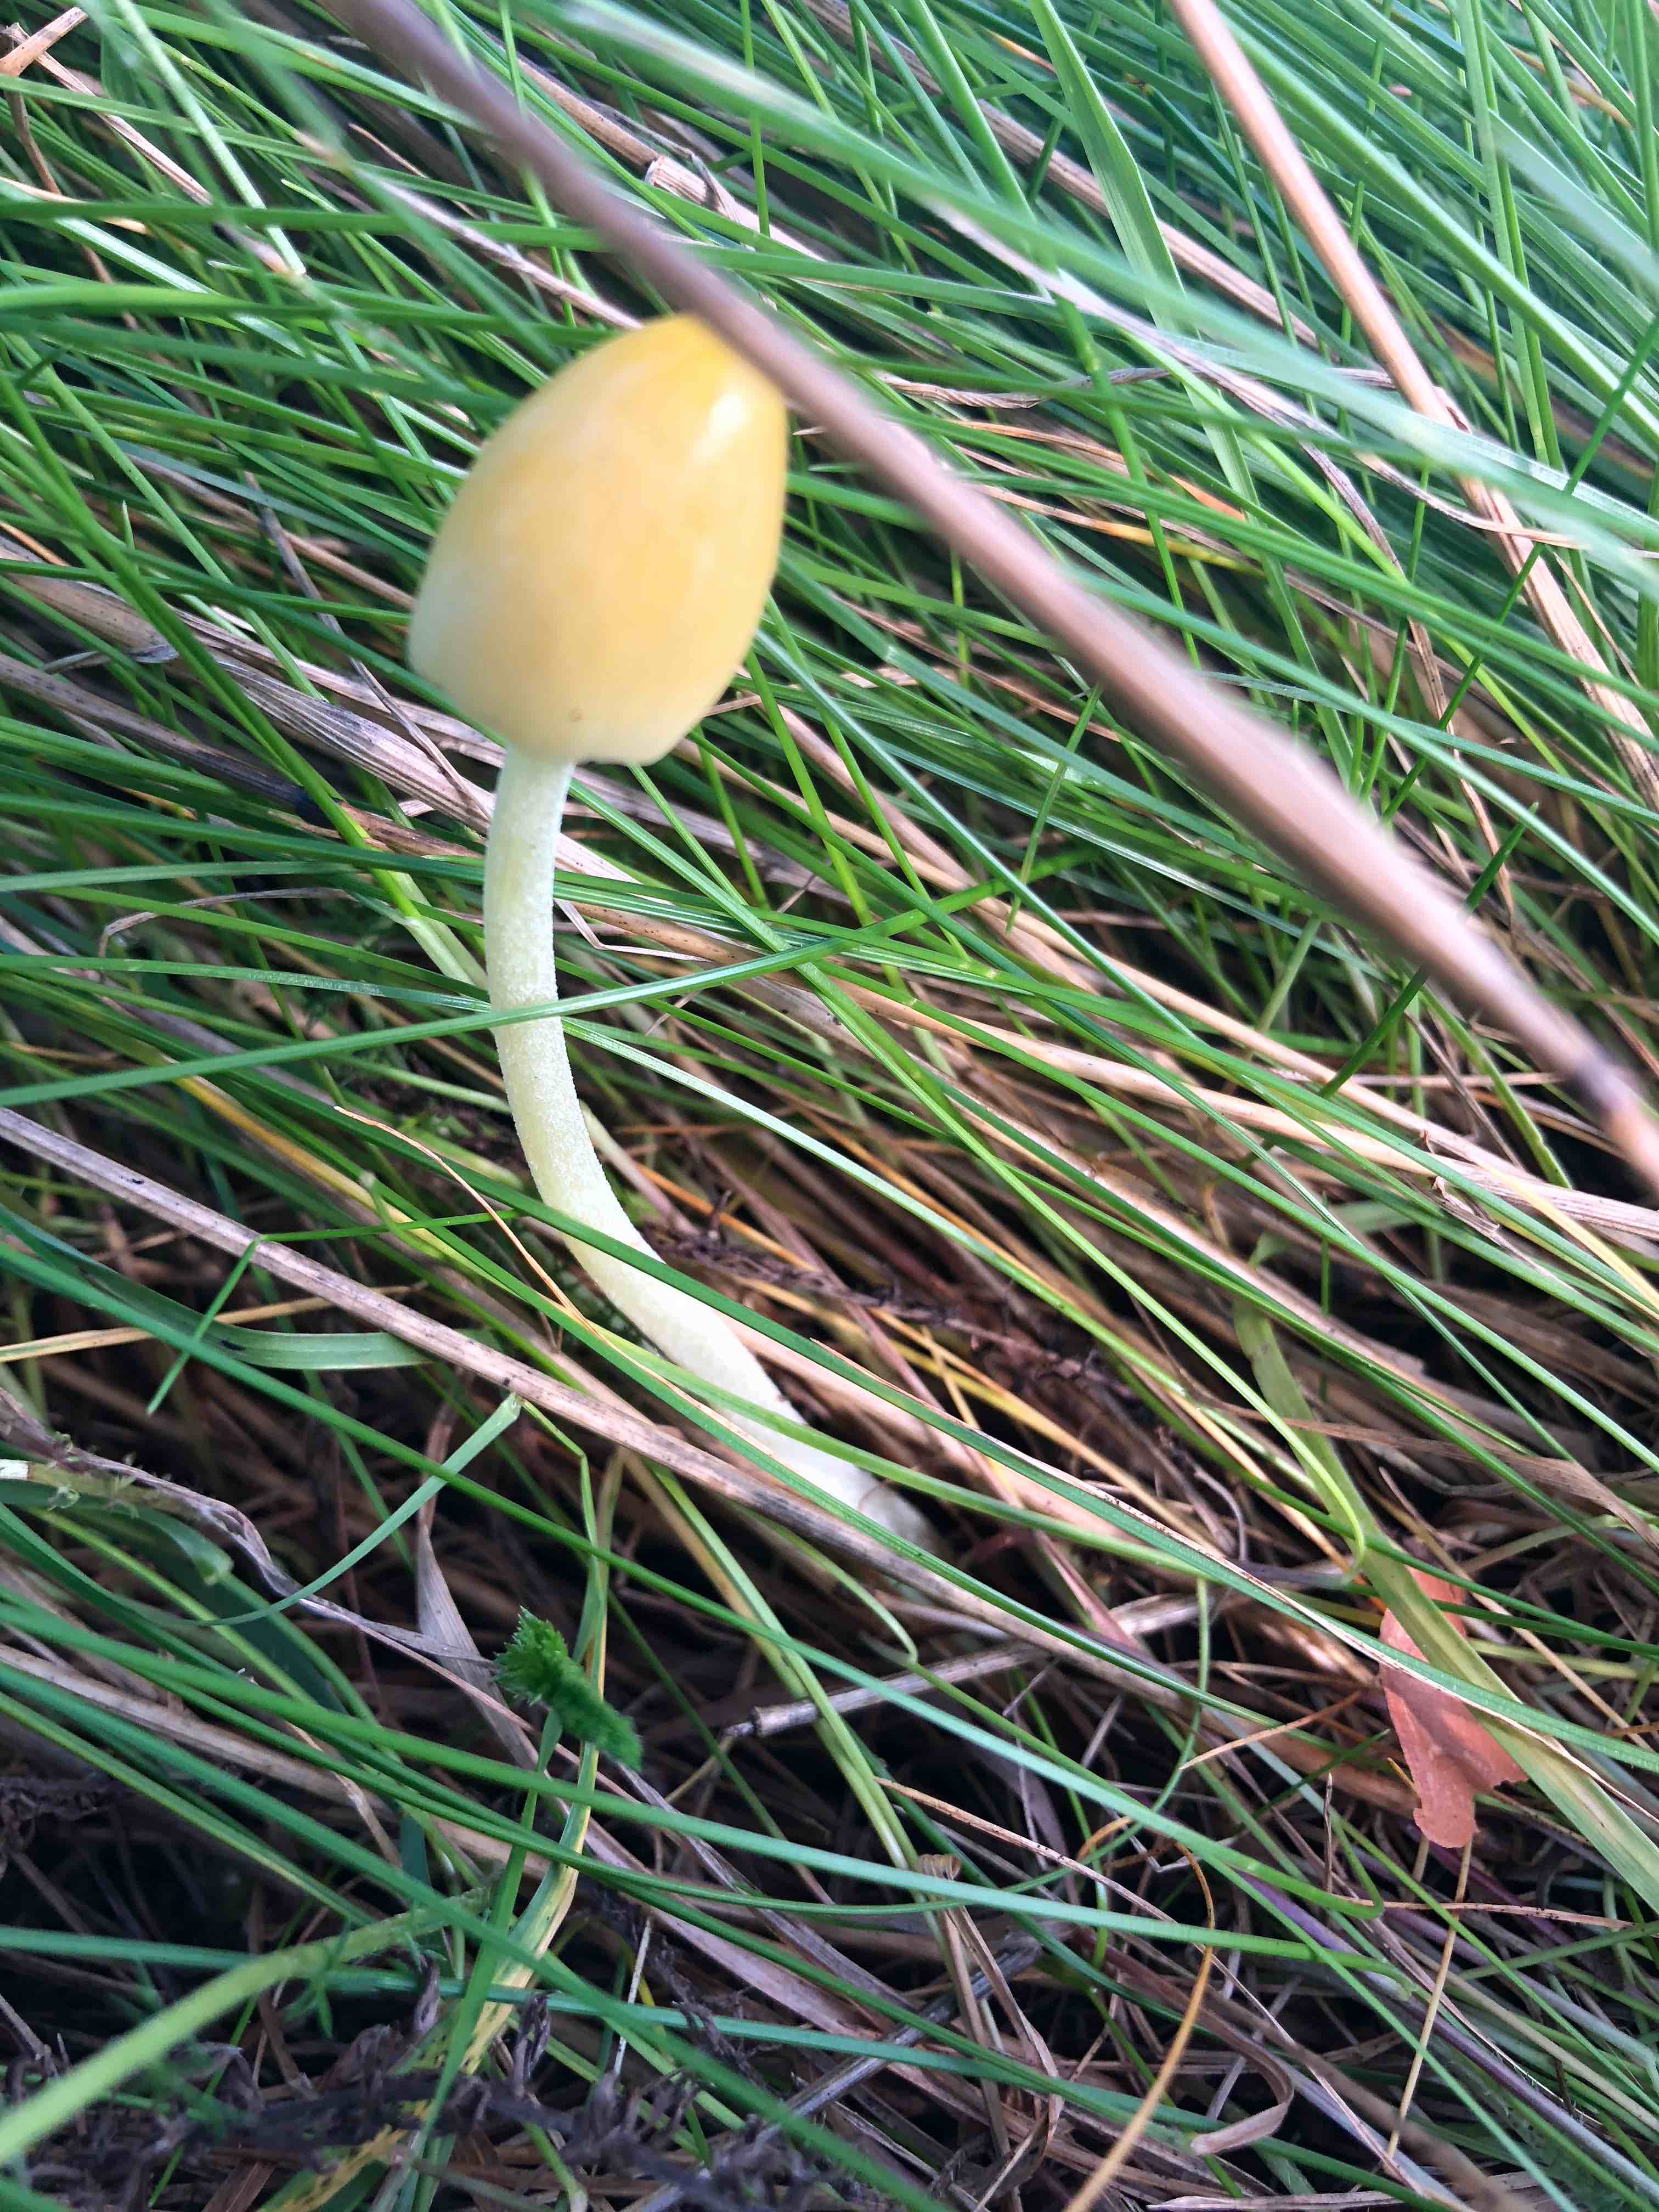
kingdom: Fungi
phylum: Basidiomycota
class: Agaricomycetes
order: Agaricales
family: Bolbitiaceae
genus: Bolbitius
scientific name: Bolbitius titubans
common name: almindelig gulhat
